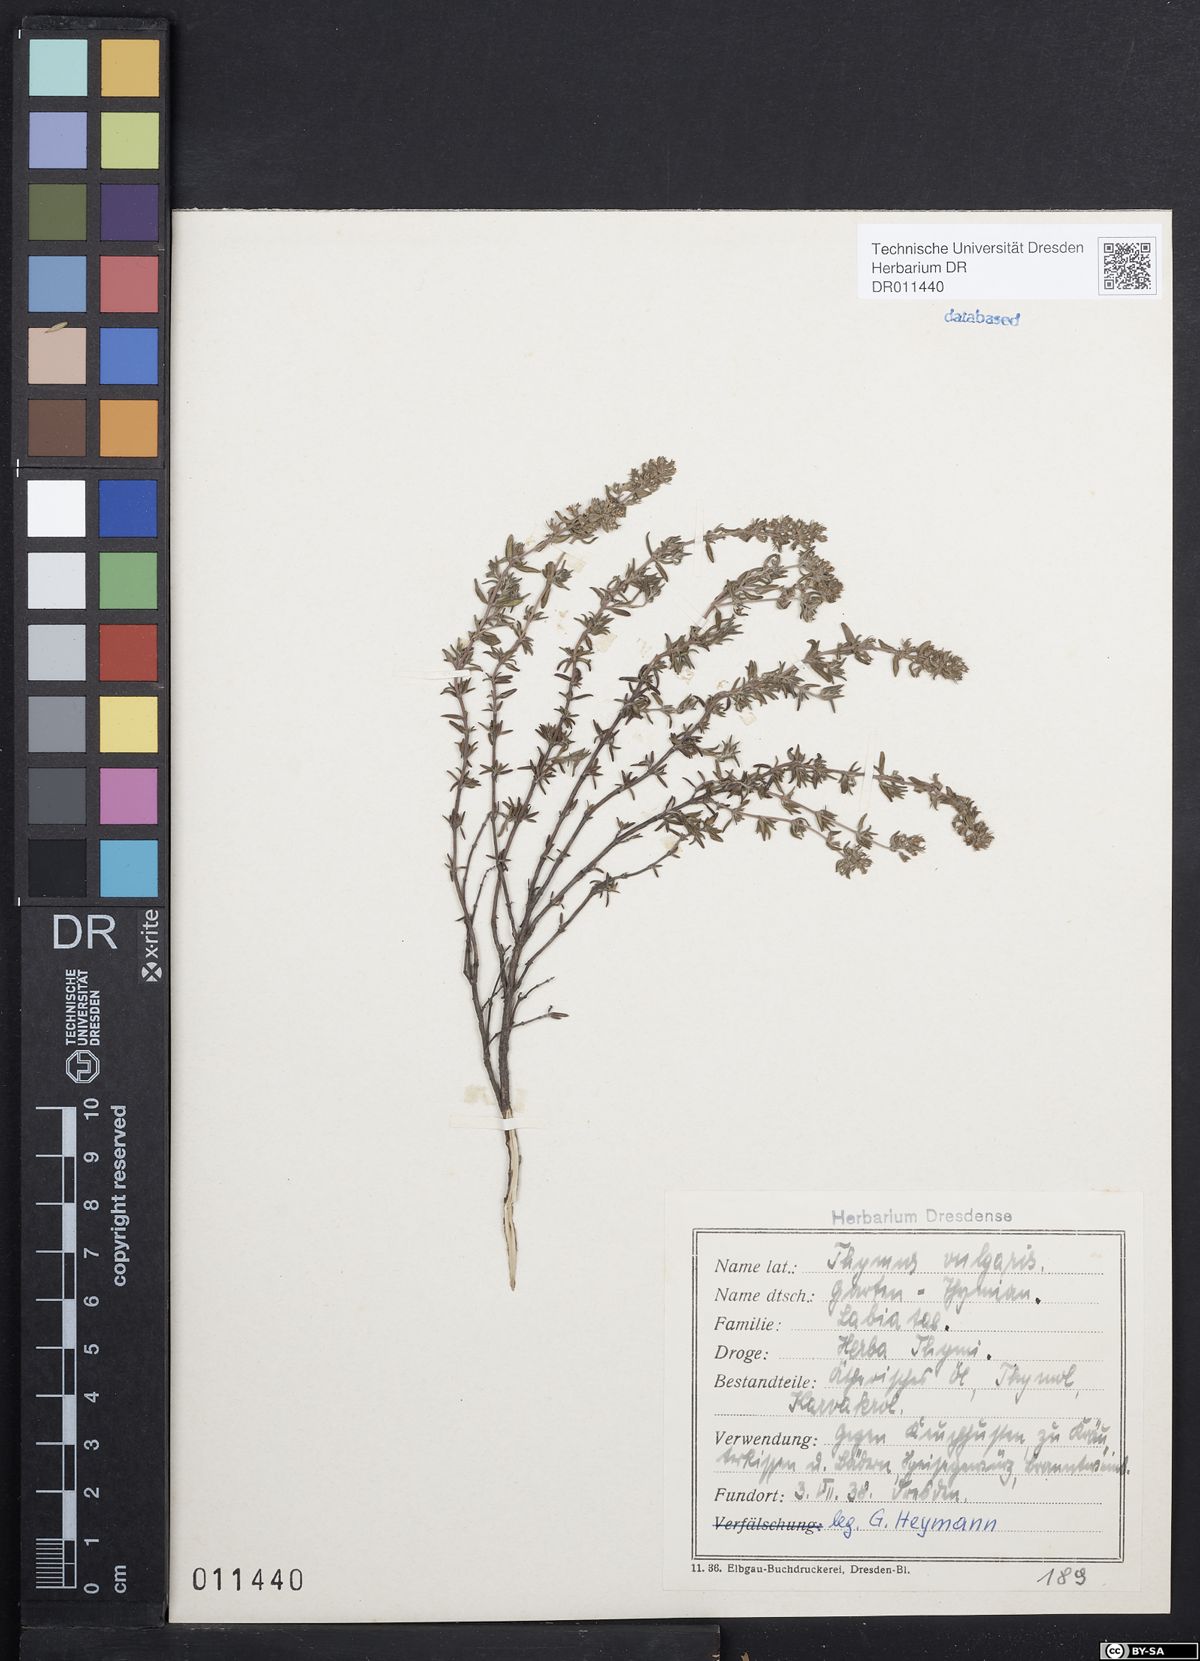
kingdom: Plantae
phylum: Tracheophyta
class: Magnoliopsida
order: Lamiales
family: Lamiaceae
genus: Thymus
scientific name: Thymus vulgaris
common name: Garden thyme
